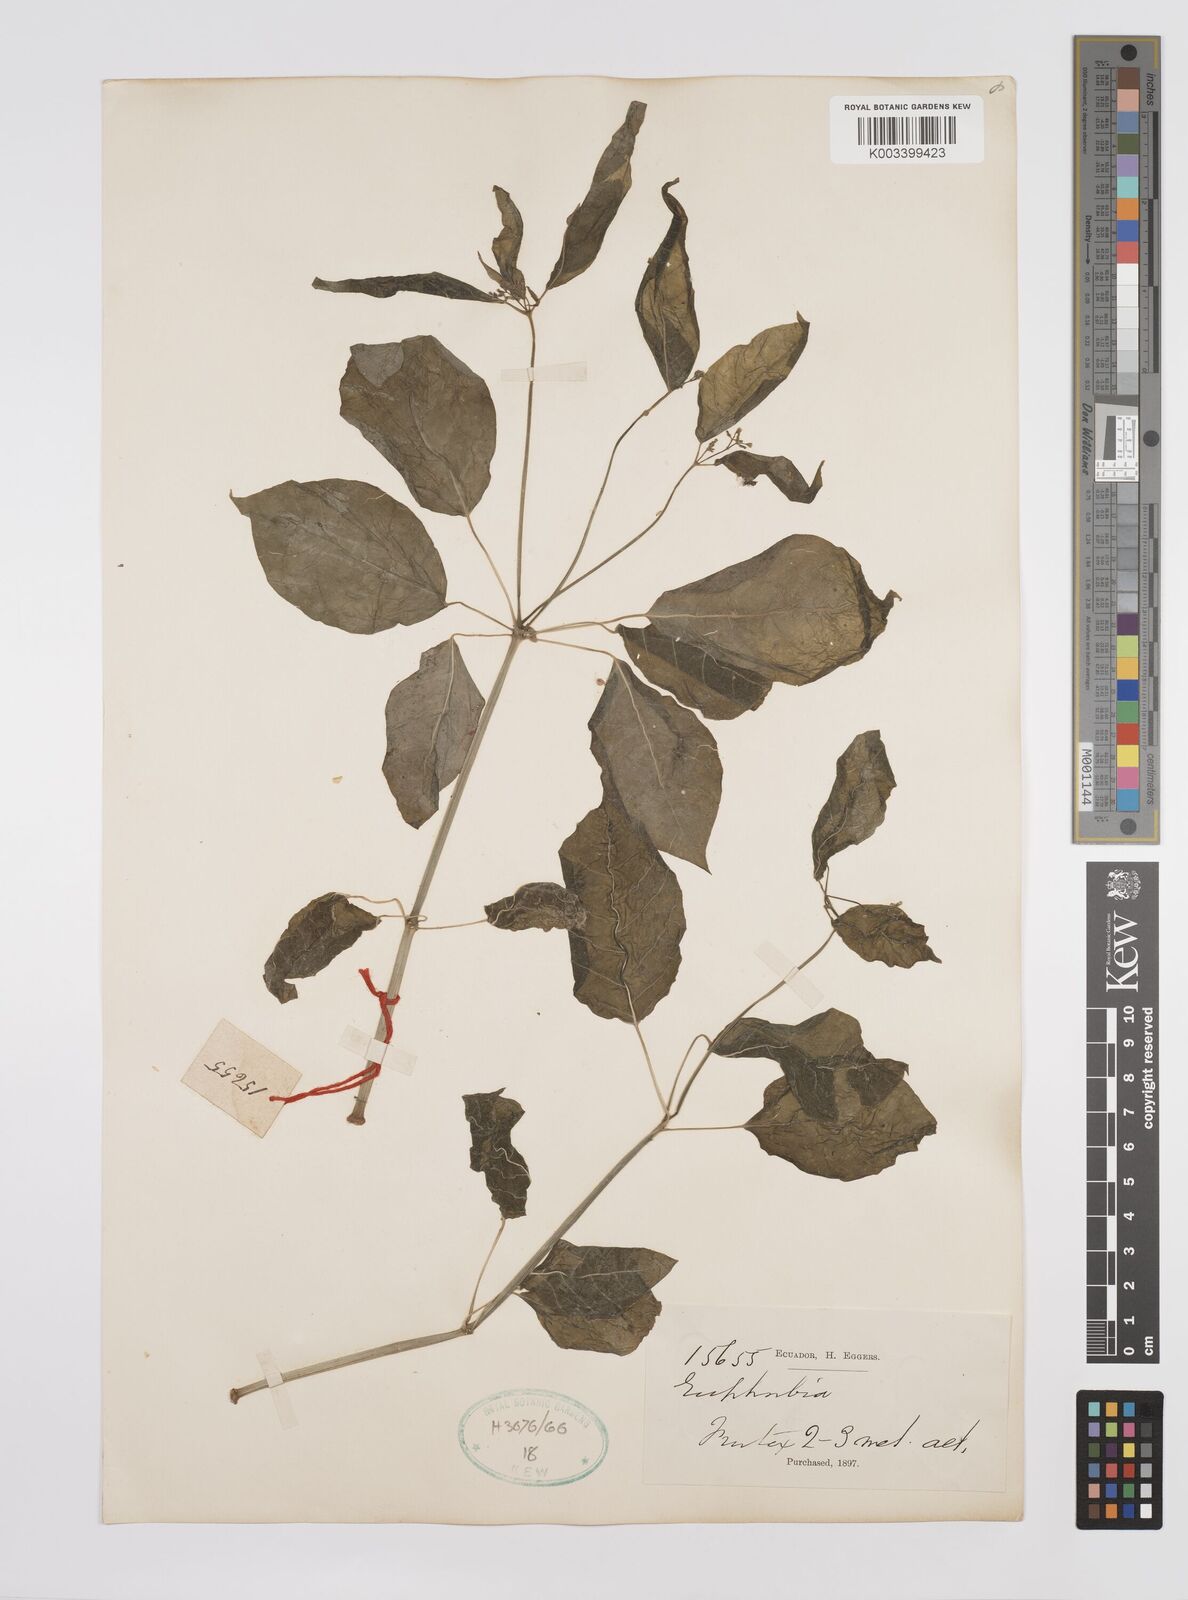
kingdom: Plantae
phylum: Tracheophyta
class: Magnoliopsida
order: Malpighiales
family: Euphorbiaceae
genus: Euphorbia
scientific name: Euphorbia
